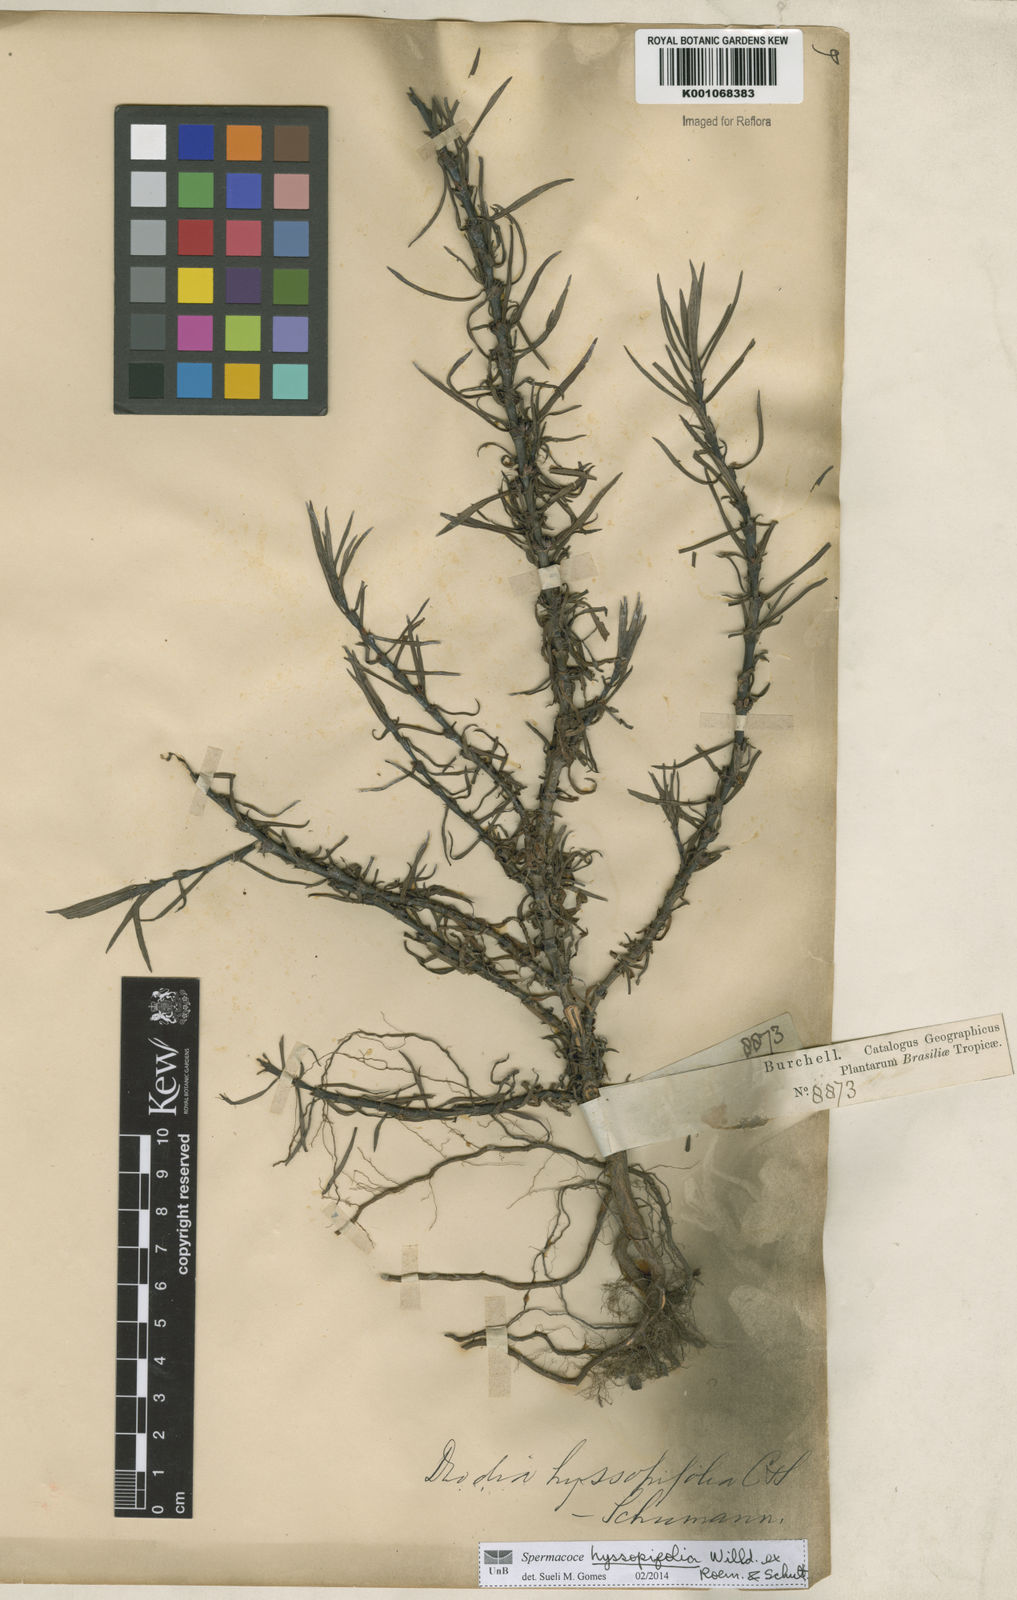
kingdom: Plantae
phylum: Tracheophyta
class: Magnoliopsida
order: Gentianales
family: Rubiaceae
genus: Spermacoce
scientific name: Spermacoce
